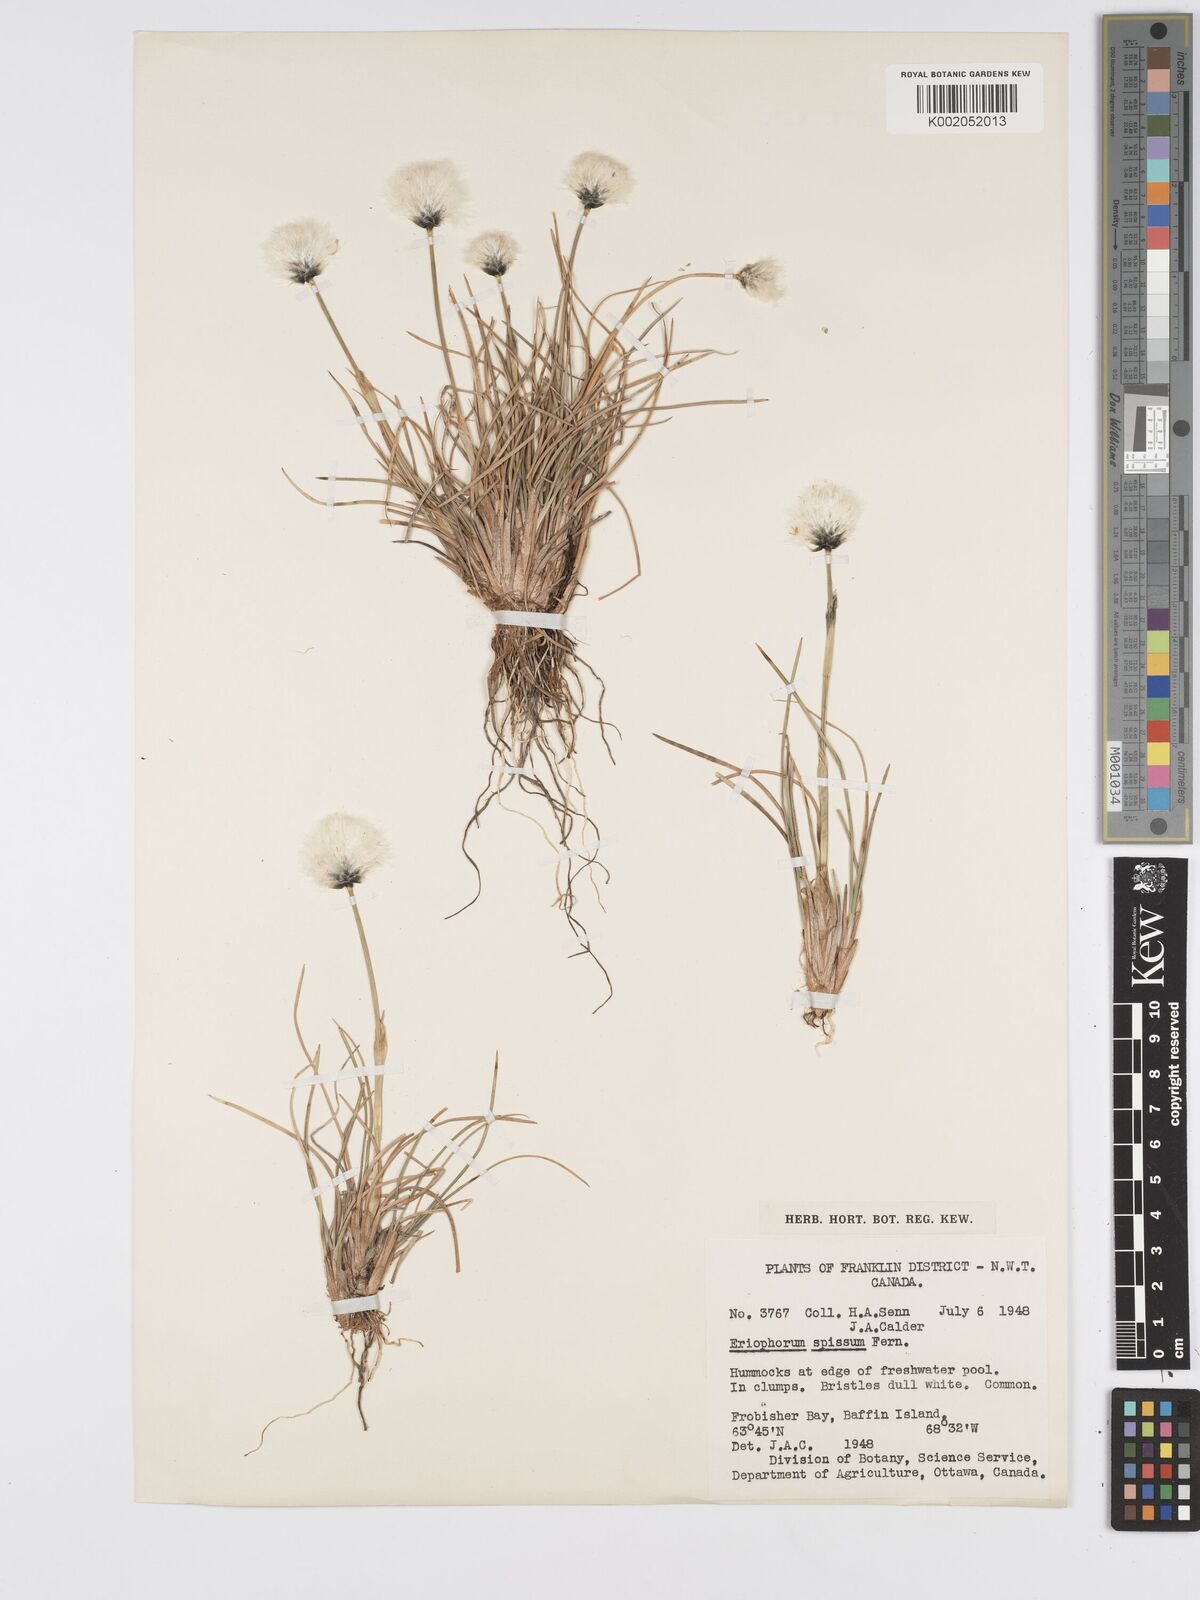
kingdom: Plantae
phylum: Tracheophyta
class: Liliopsida
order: Poales
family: Cyperaceae
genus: Eriophorum
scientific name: Eriophorum vaginatum
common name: Hare's-tail cottongrass
